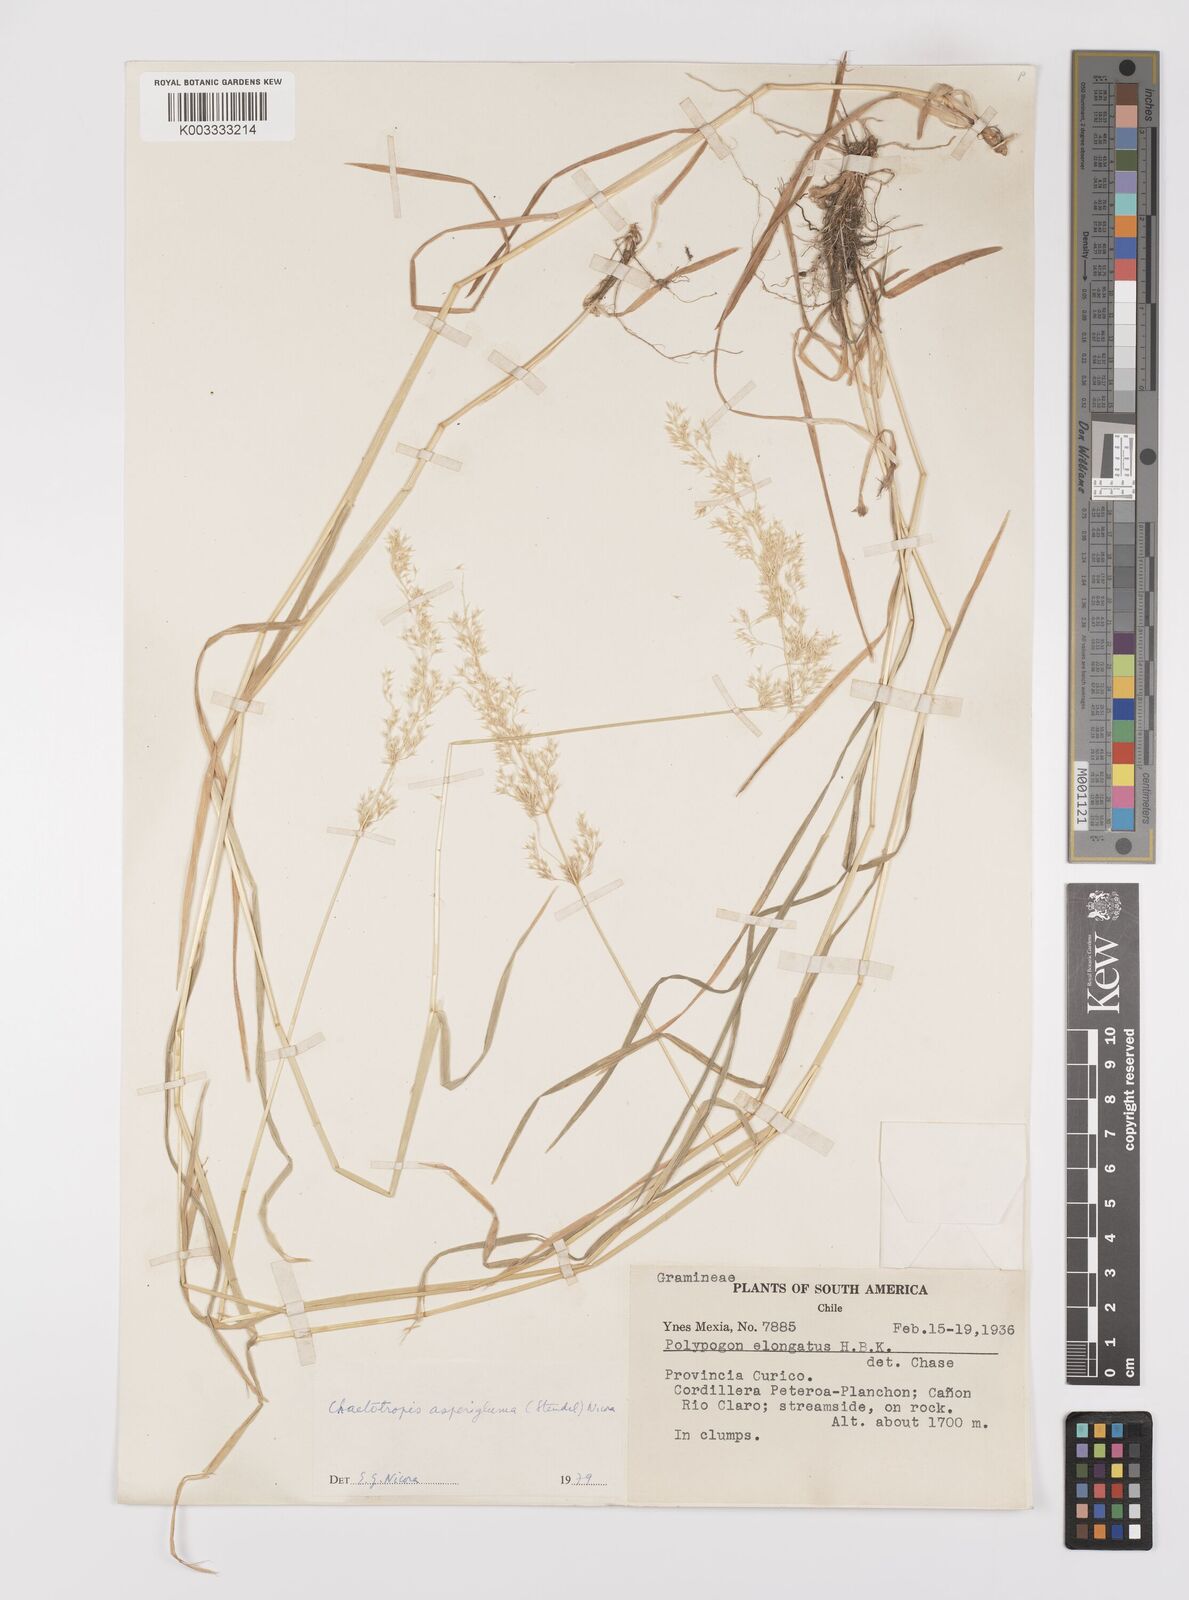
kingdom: Plantae
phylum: Tracheophyta
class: Liliopsida
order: Poales
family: Poaceae
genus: Polypogon
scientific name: Polypogon exasperatus
